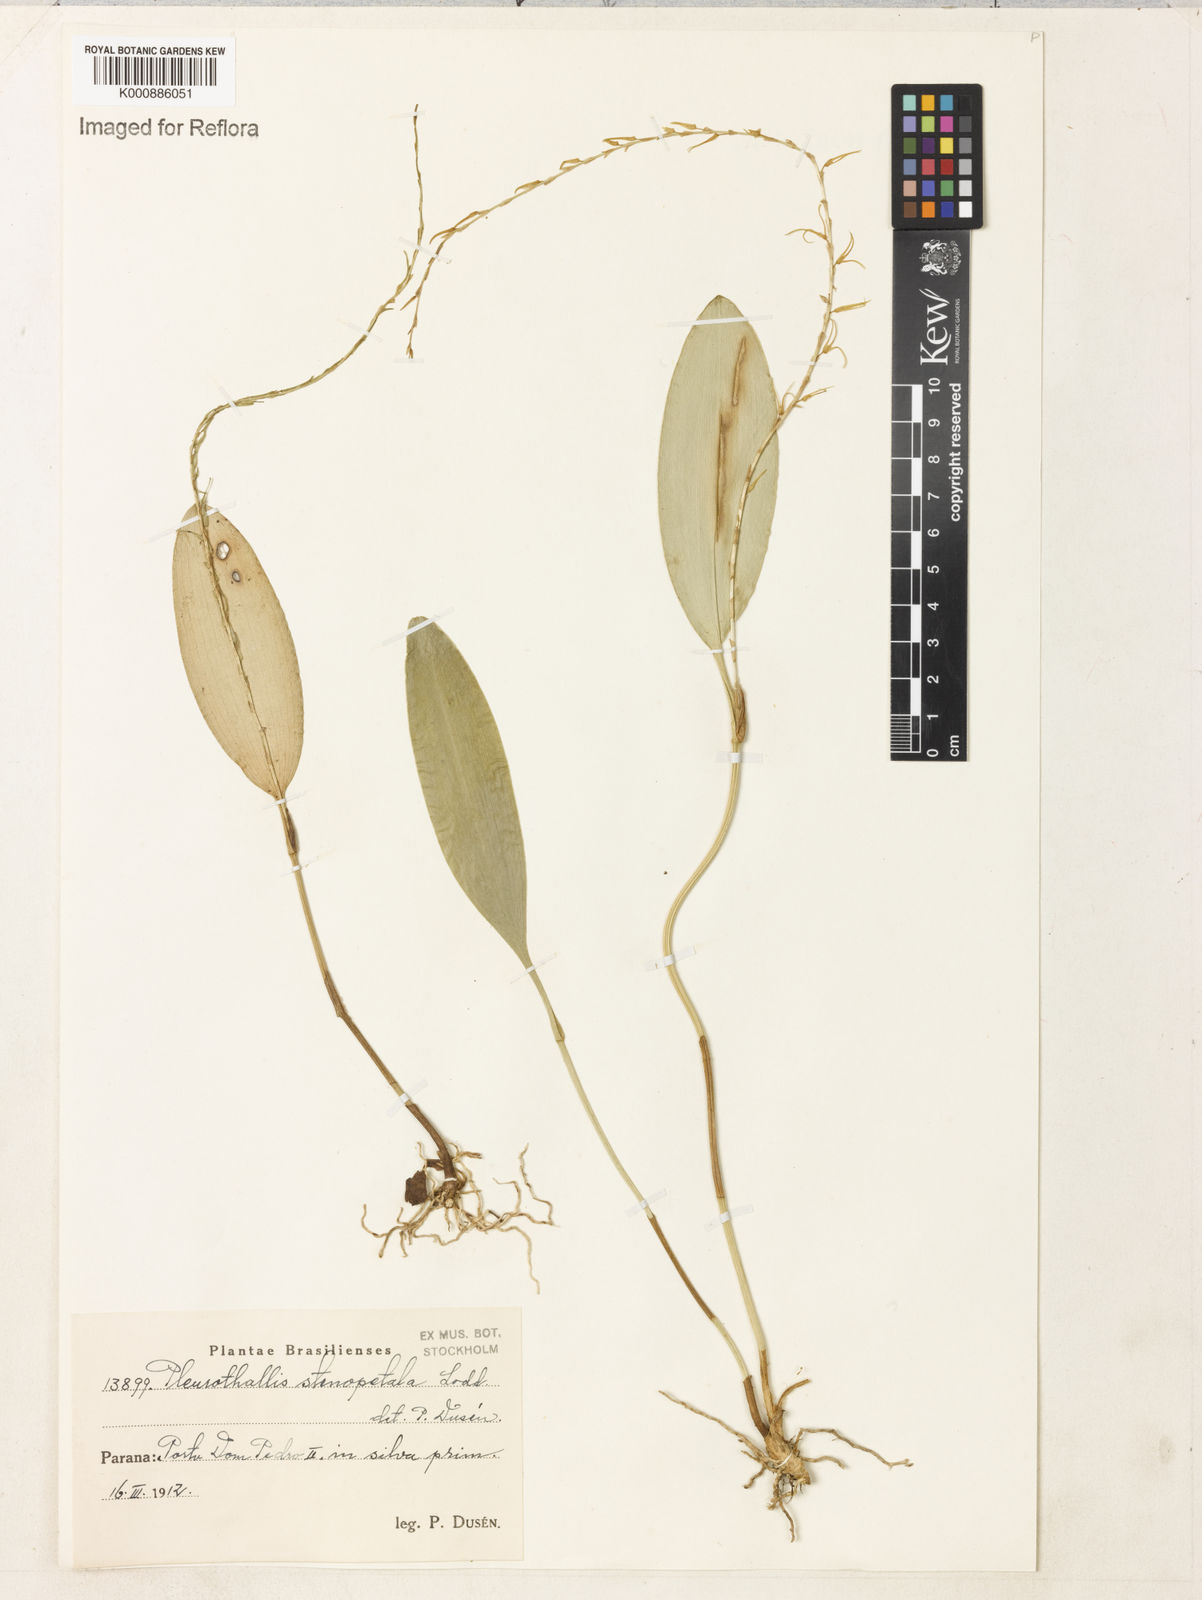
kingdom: Plantae
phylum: Tracheophyta
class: Liliopsida
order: Asparagales
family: Orchidaceae
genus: Stelis
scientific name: Stelis sclerophylla
